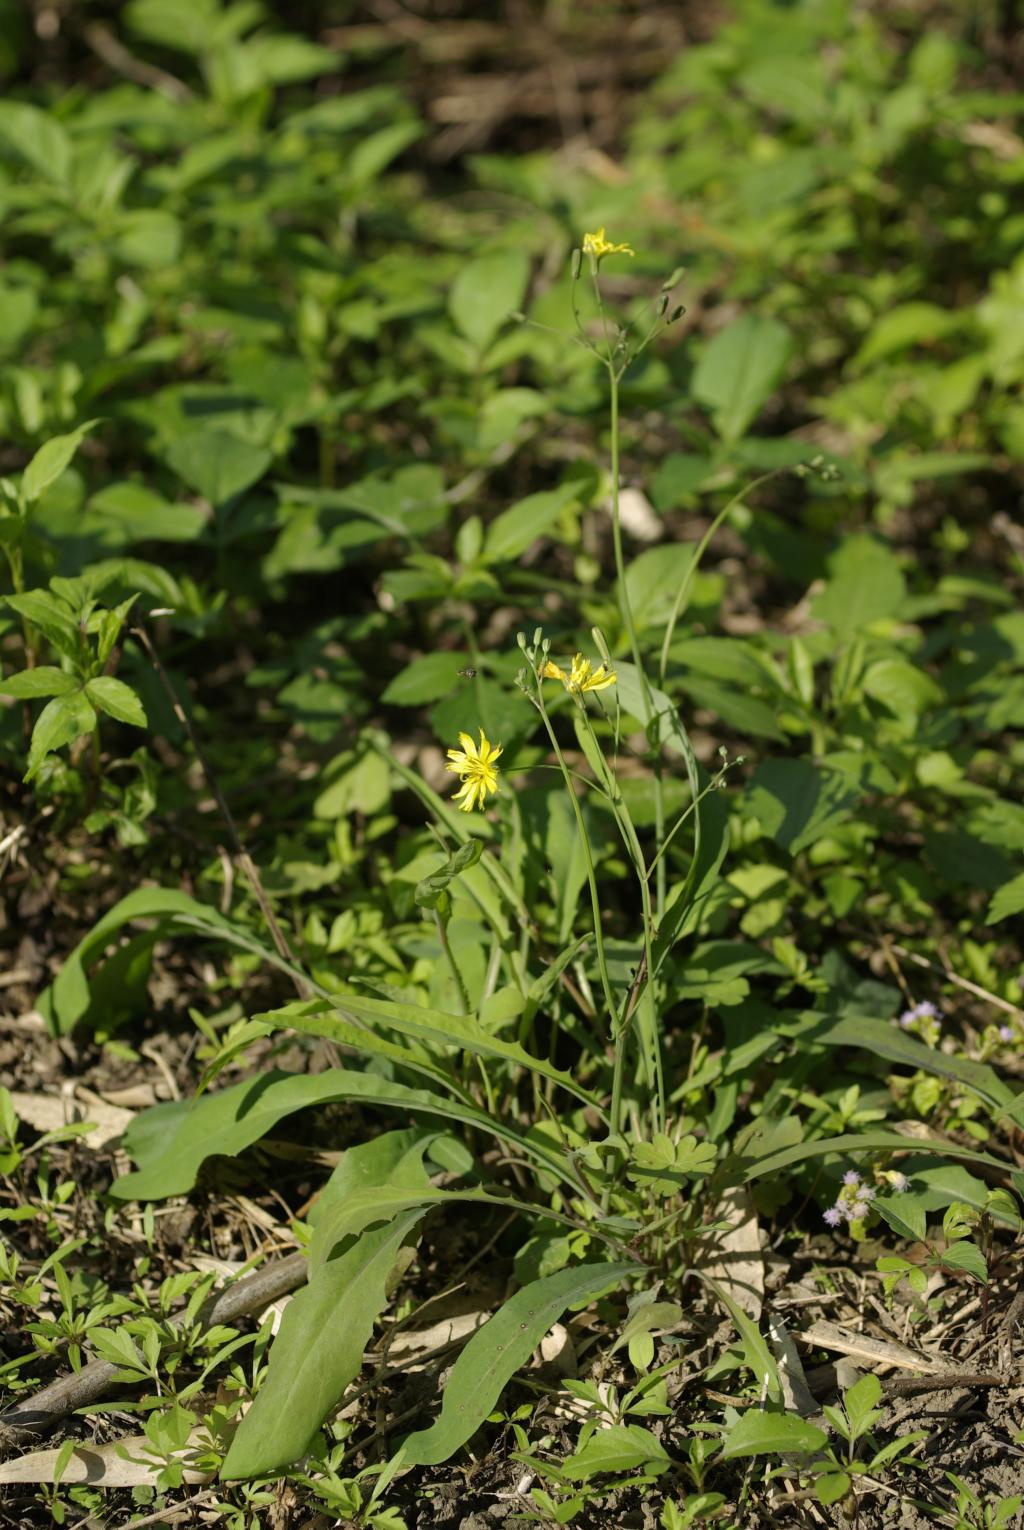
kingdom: Plantae
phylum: Tracheophyta
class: Magnoliopsida
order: Asterales
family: Asteraceae
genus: Ixeridium
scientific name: Ixeridium laevigatum
